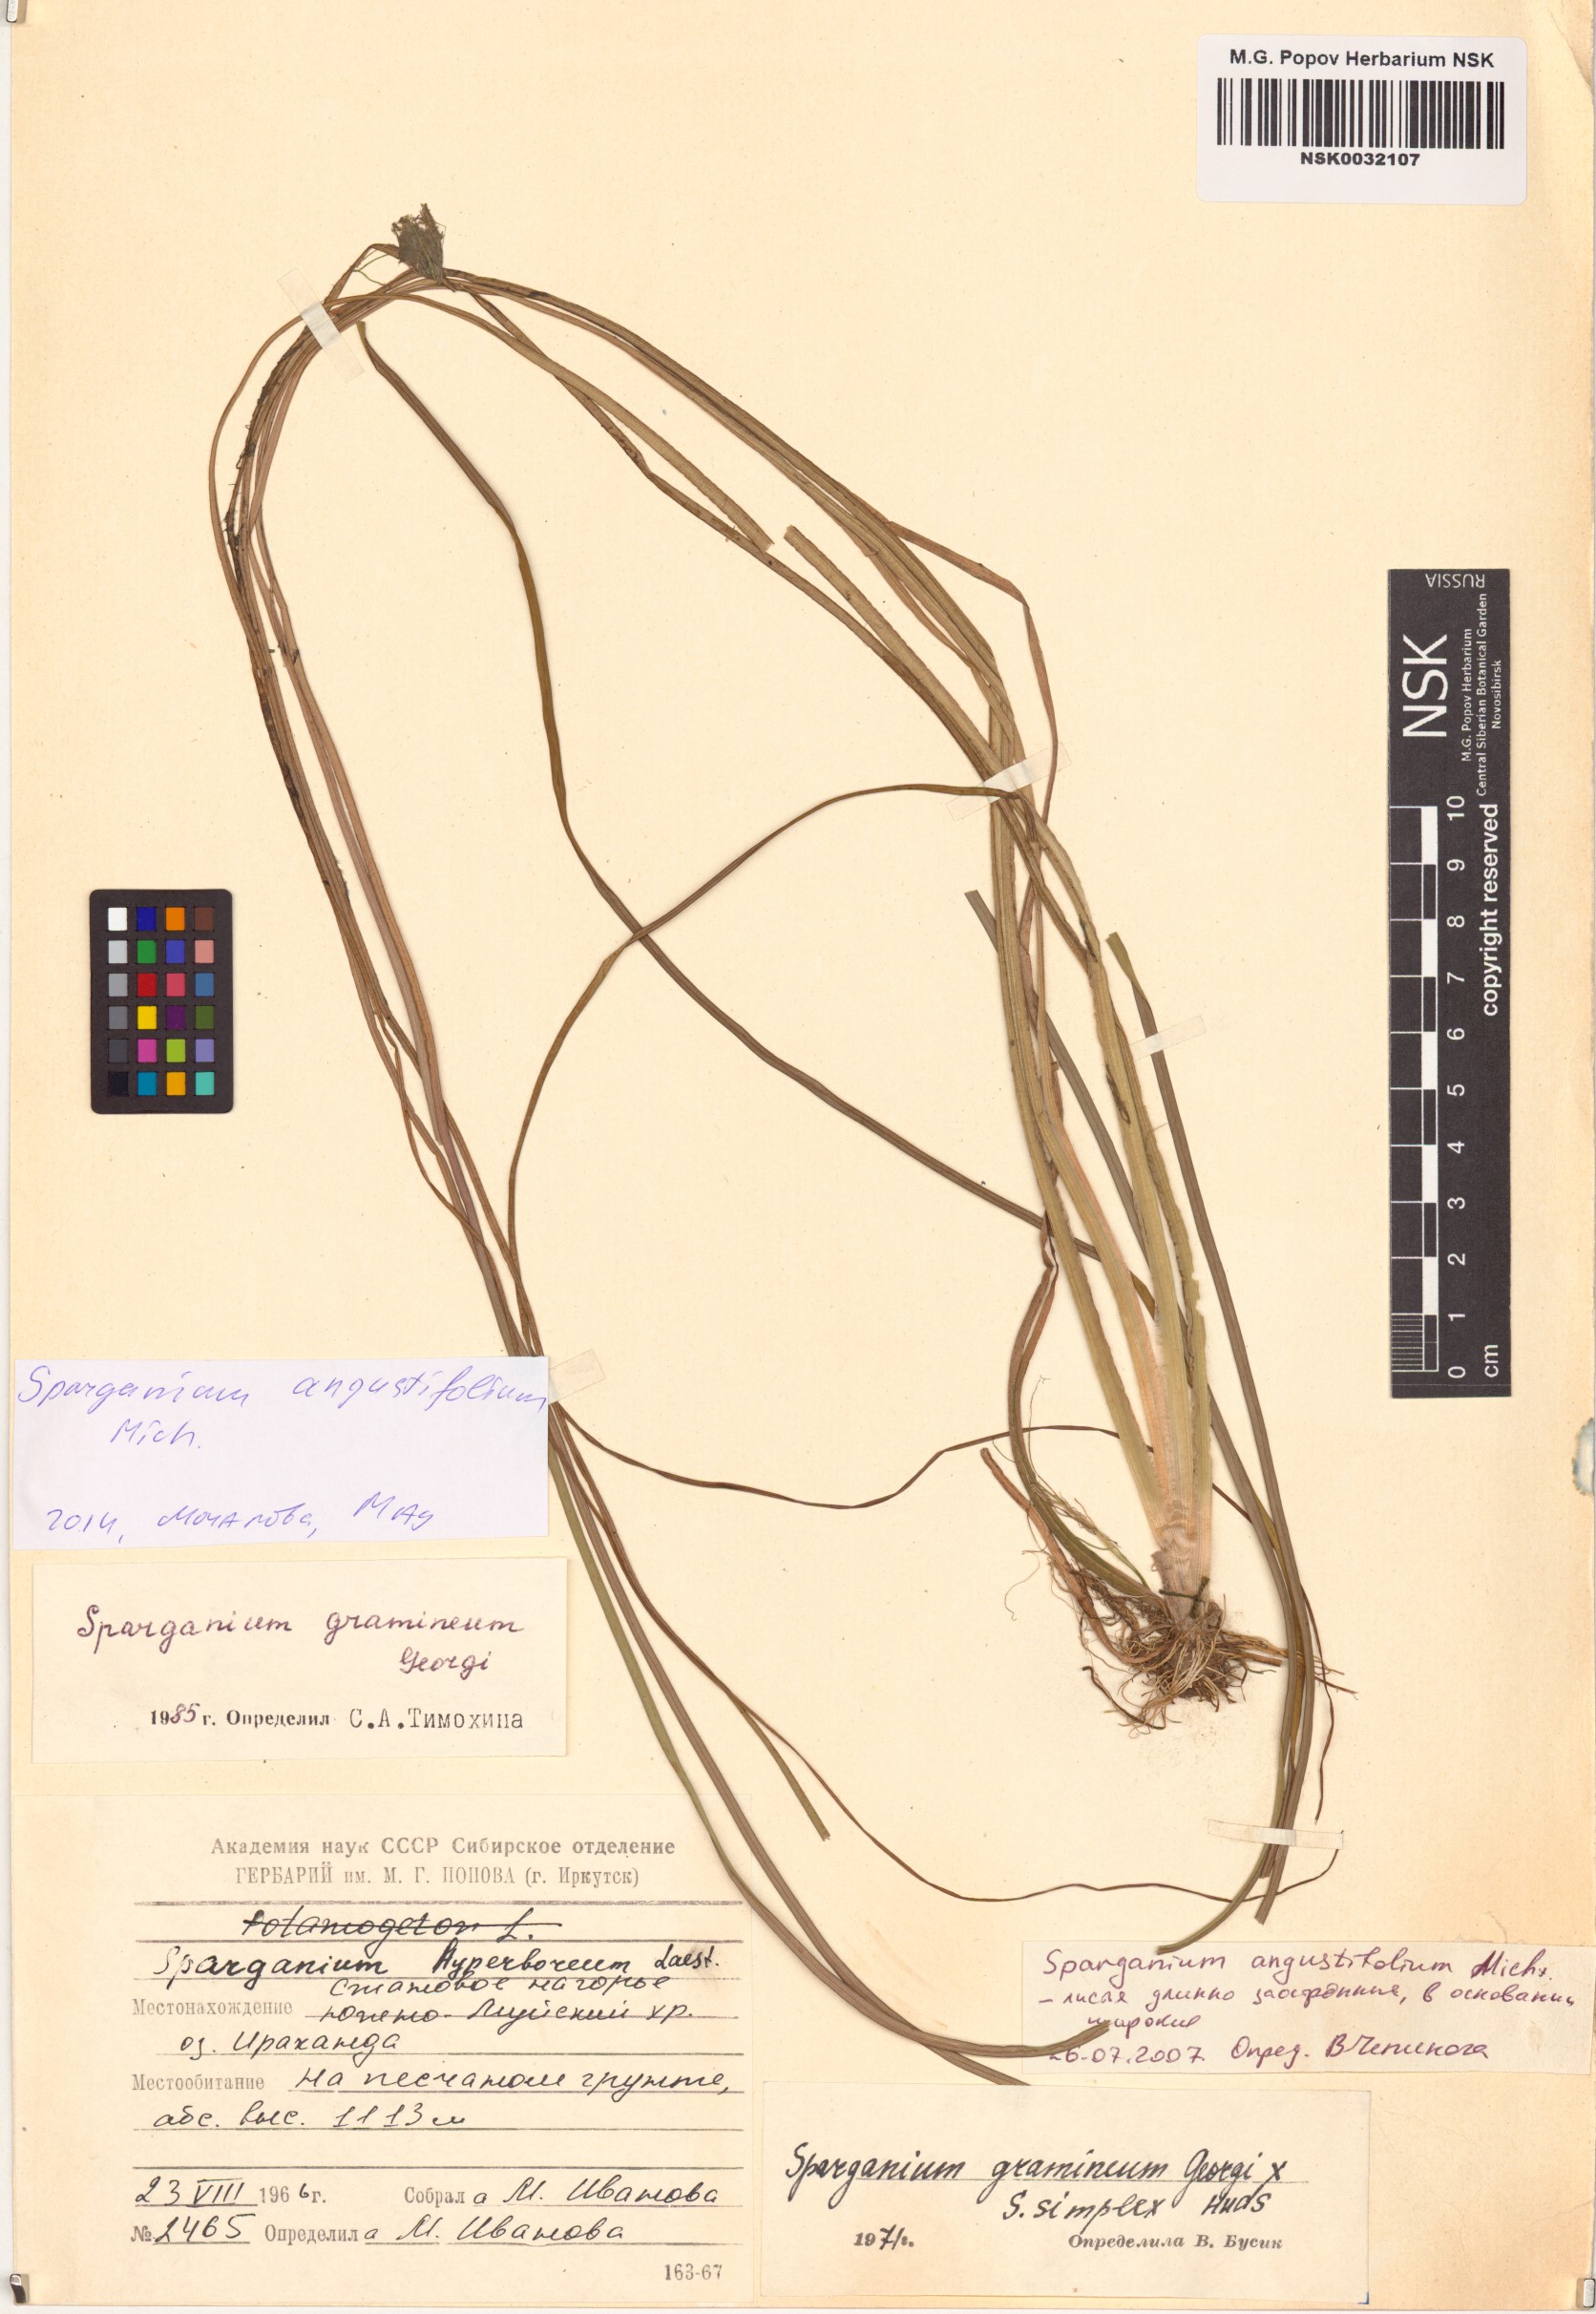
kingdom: Plantae
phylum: Tracheophyta
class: Liliopsida
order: Poales
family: Typhaceae
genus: Sparganium
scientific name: Sparganium angustifolium
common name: Floating bur-reed
